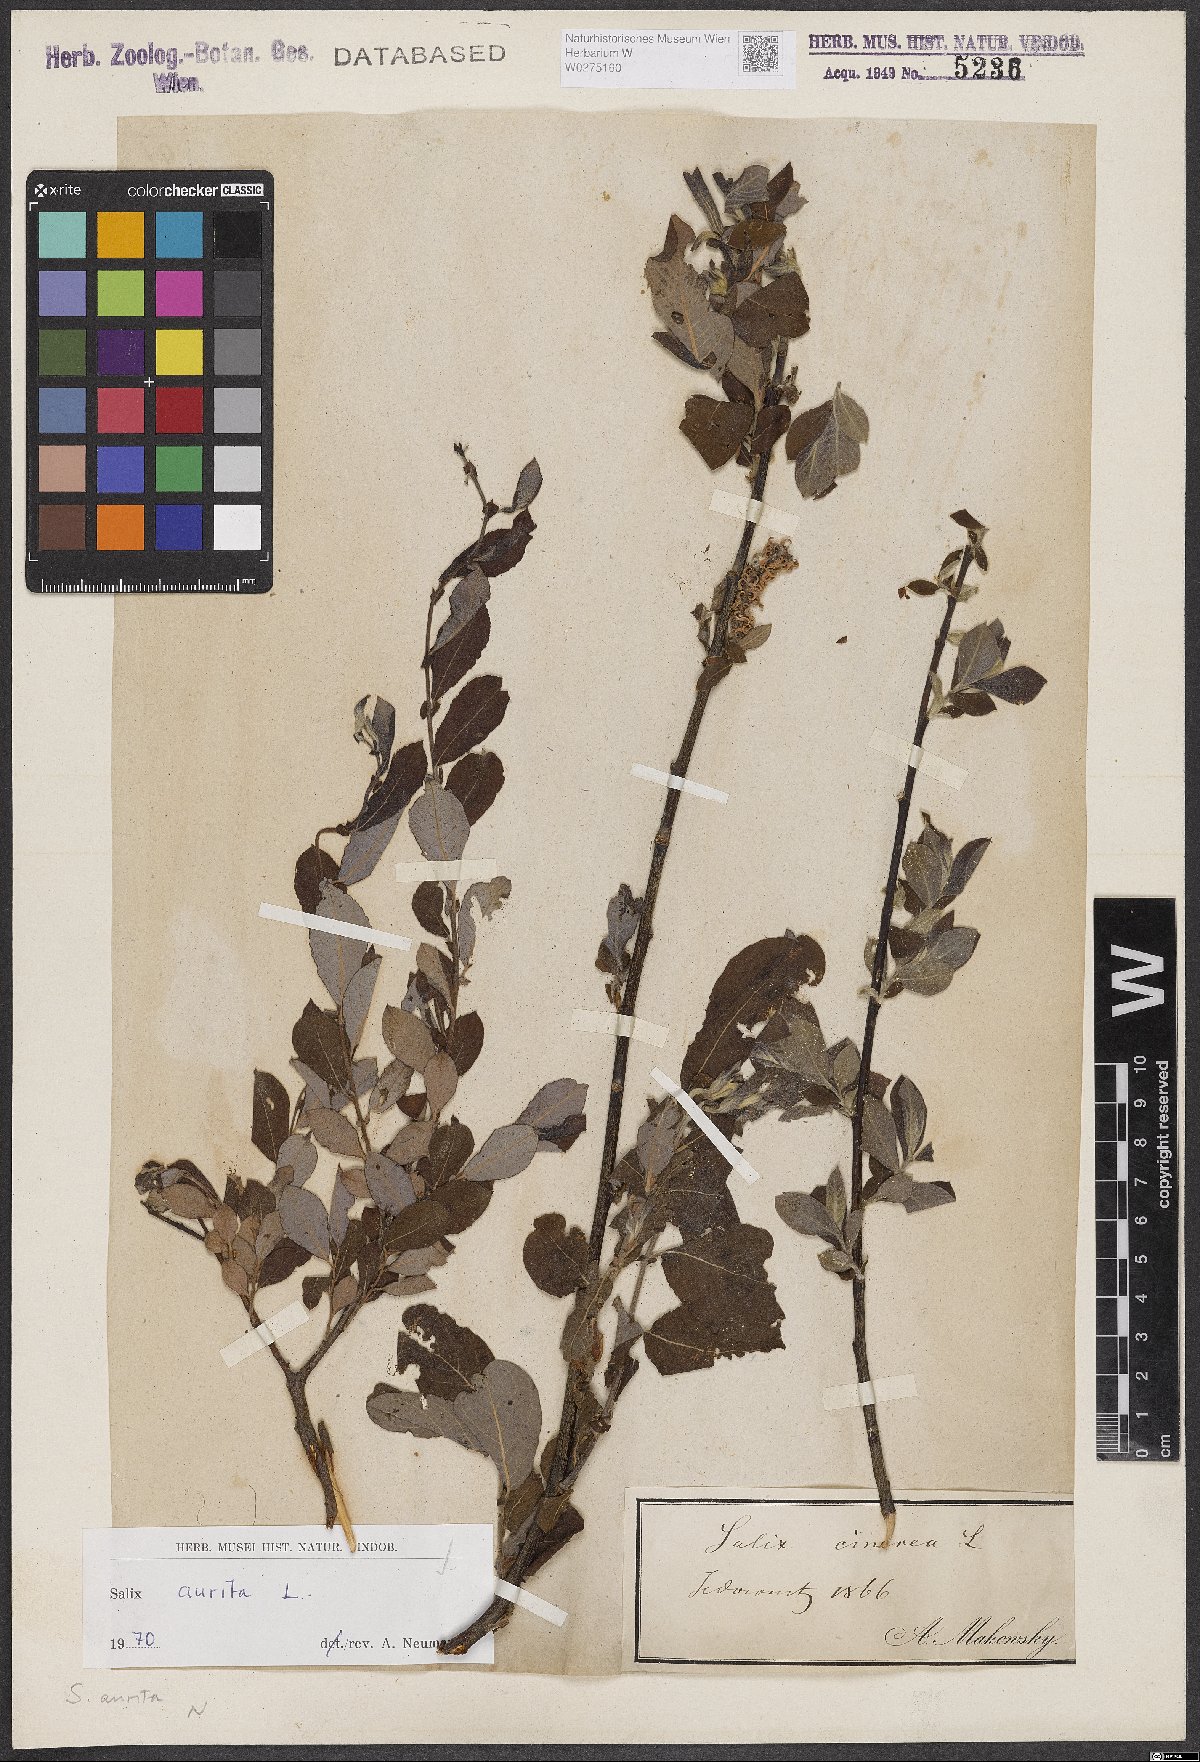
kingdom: Plantae
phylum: Tracheophyta
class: Magnoliopsida
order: Malpighiales
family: Salicaceae
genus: Salix
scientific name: Salix aurita
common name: Eared willow
